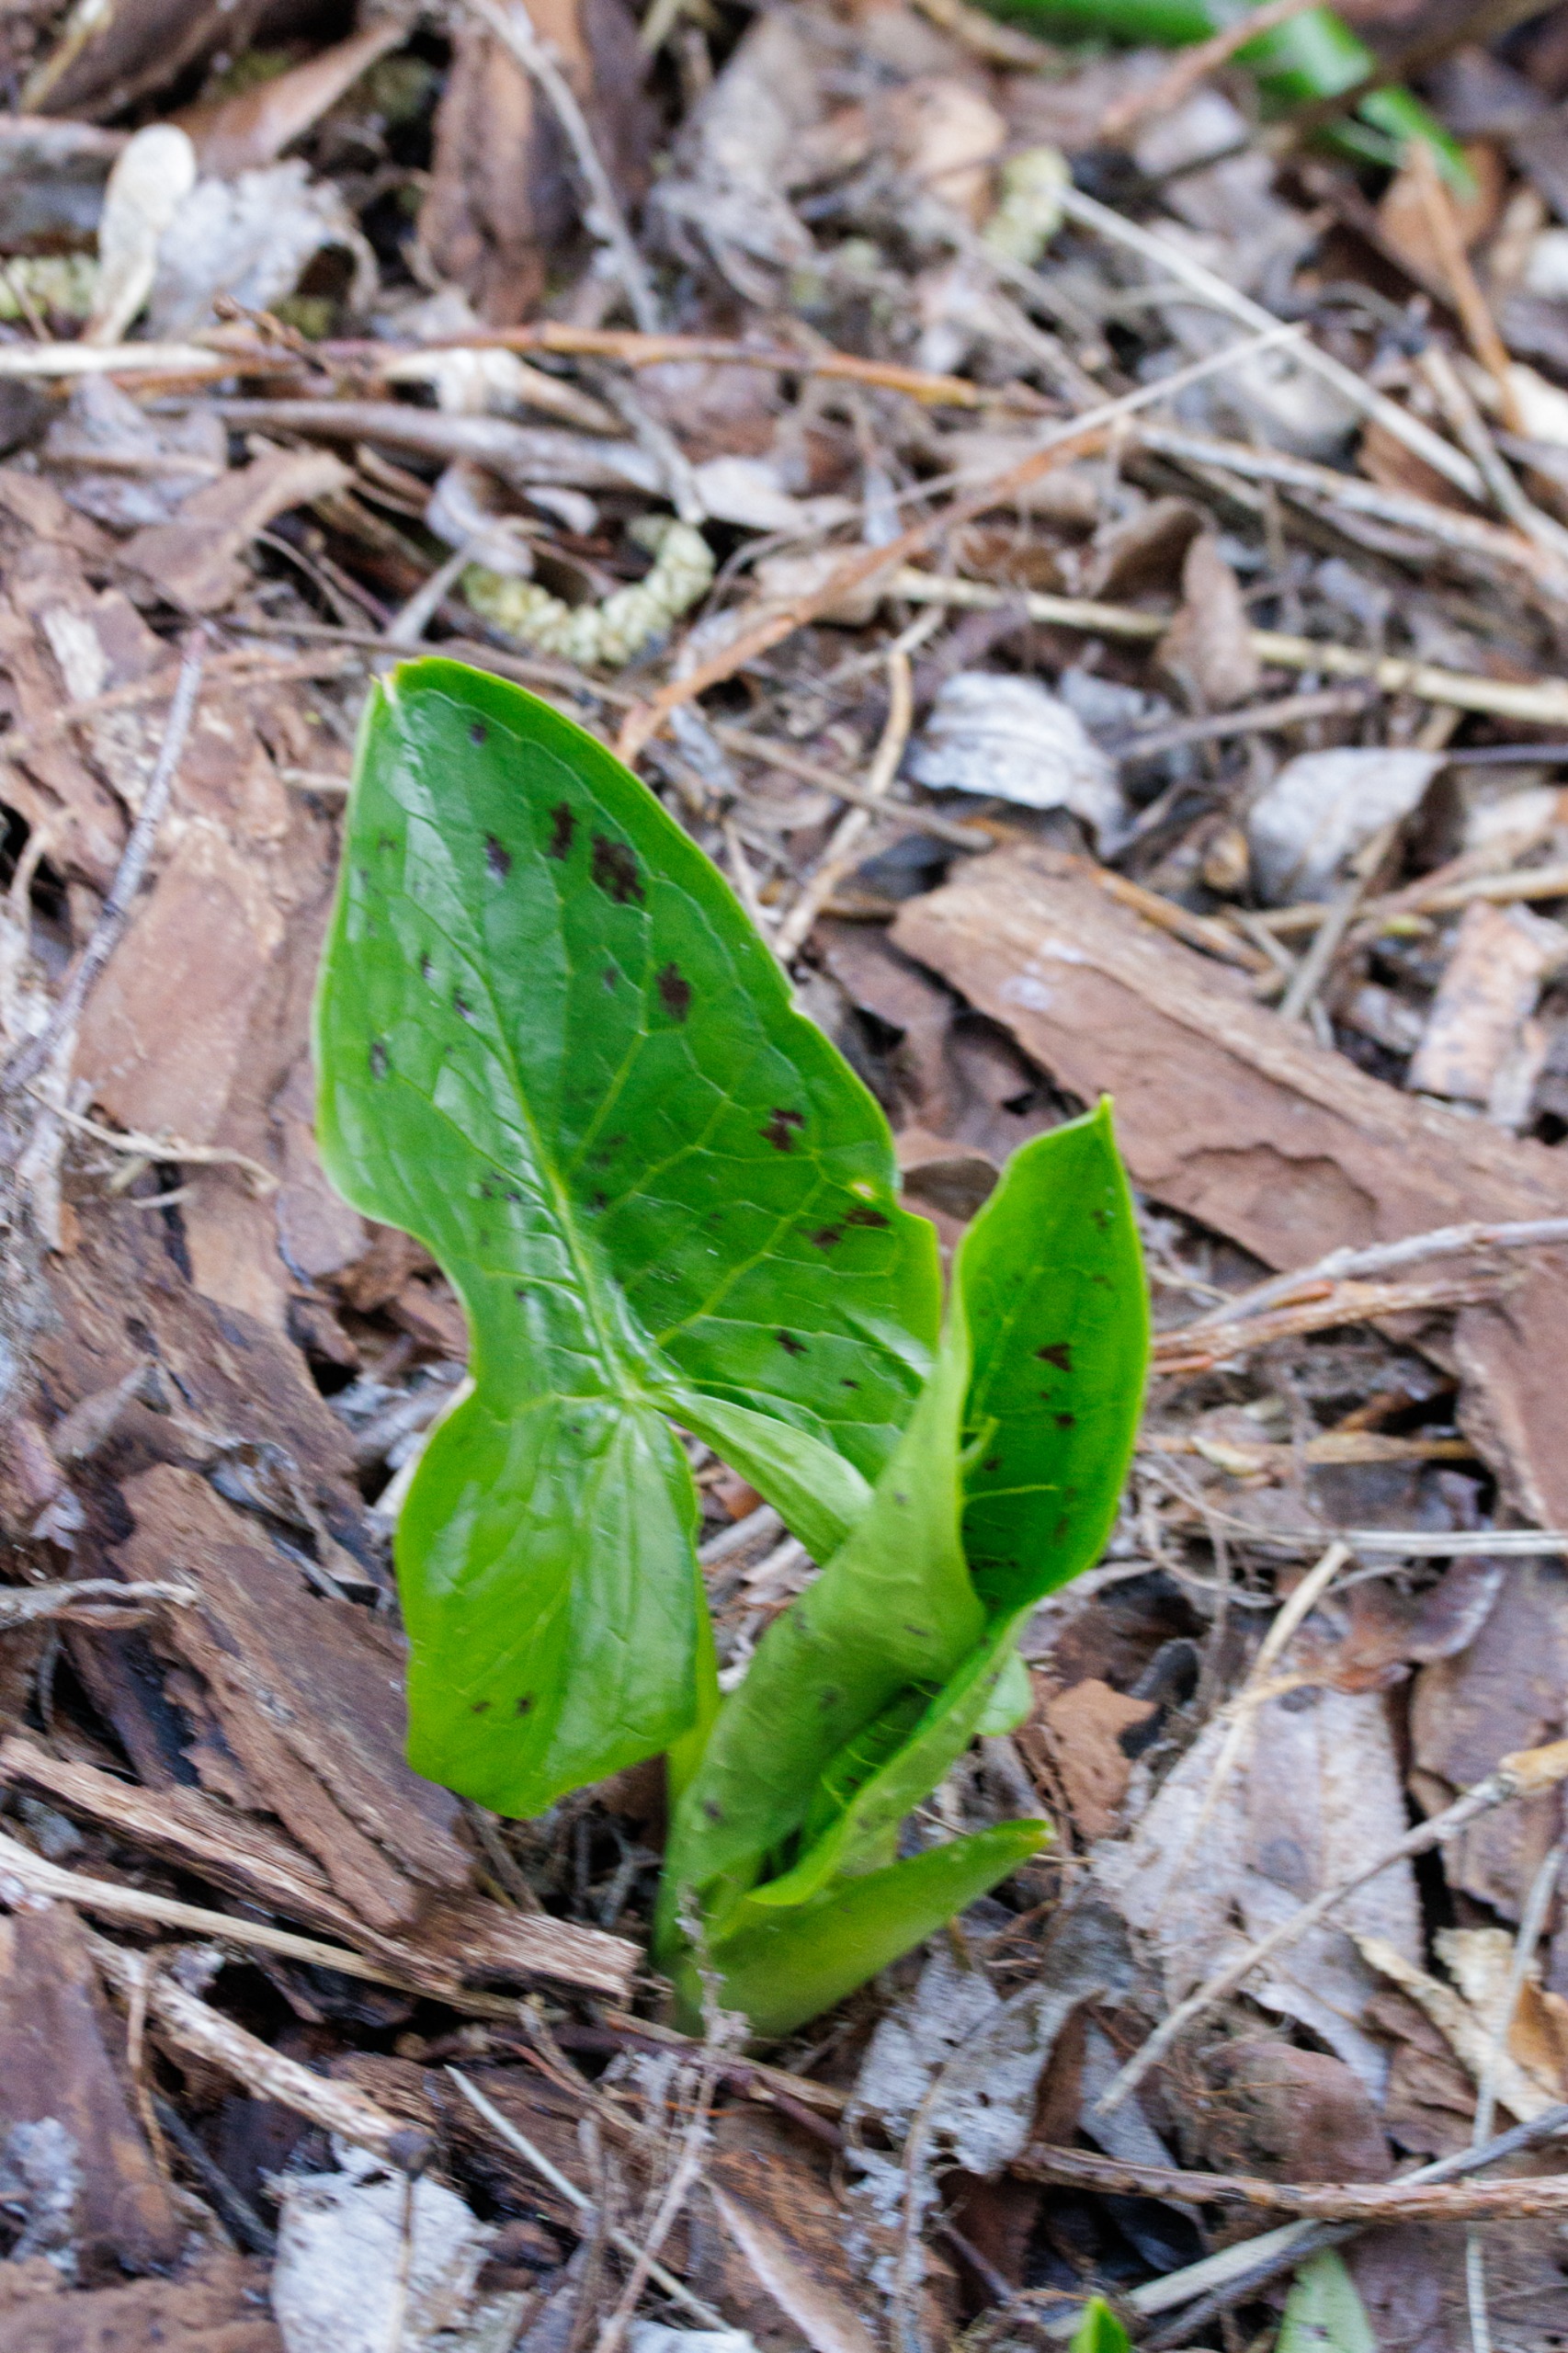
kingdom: Plantae
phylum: Tracheophyta
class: Liliopsida
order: Alismatales
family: Araceae
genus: Arum
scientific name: Arum maculatum
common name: Plettet arum
